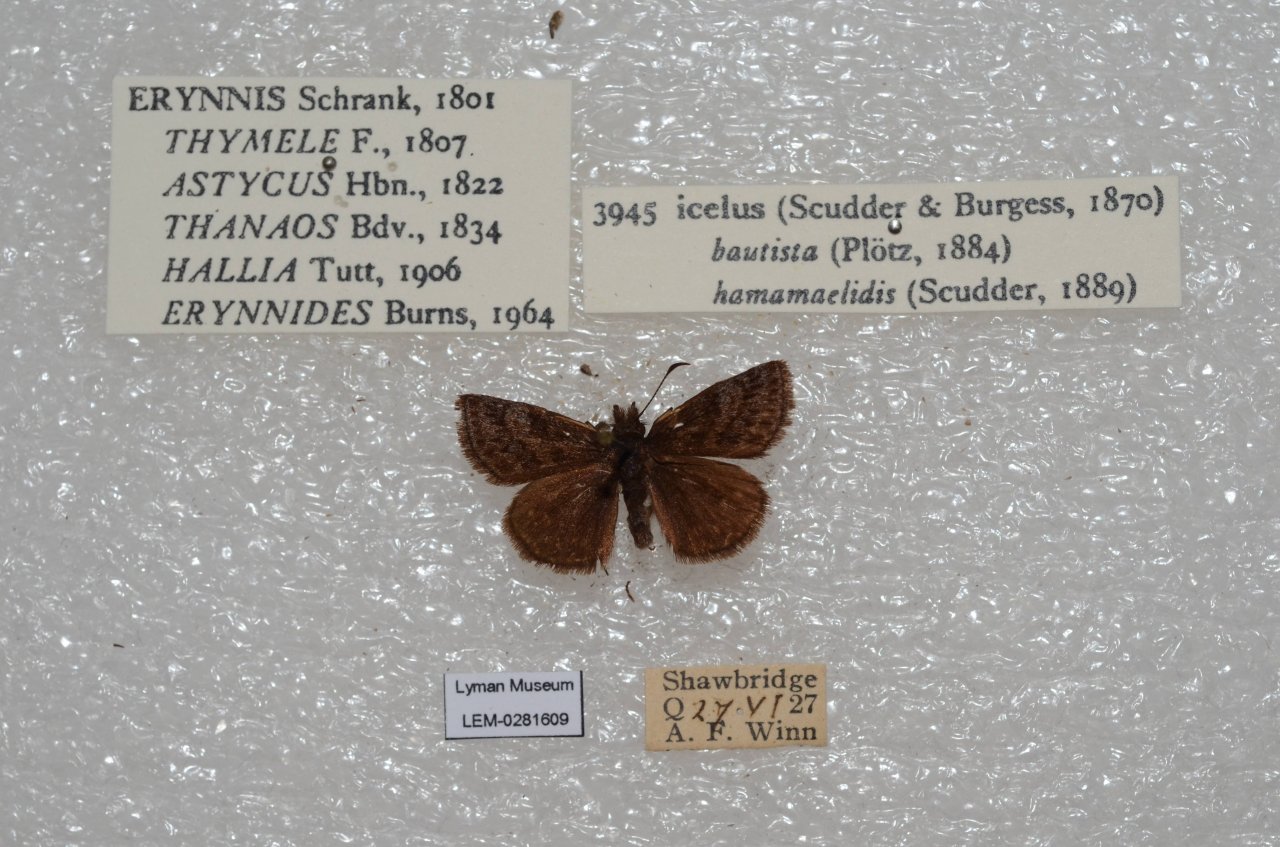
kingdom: Animalia
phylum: Arthropoda
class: Insecta
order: Lepidoptera
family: Hesperiidae
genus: Erynnis
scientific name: Erynnis icelus
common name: Dreamy Duskywing
